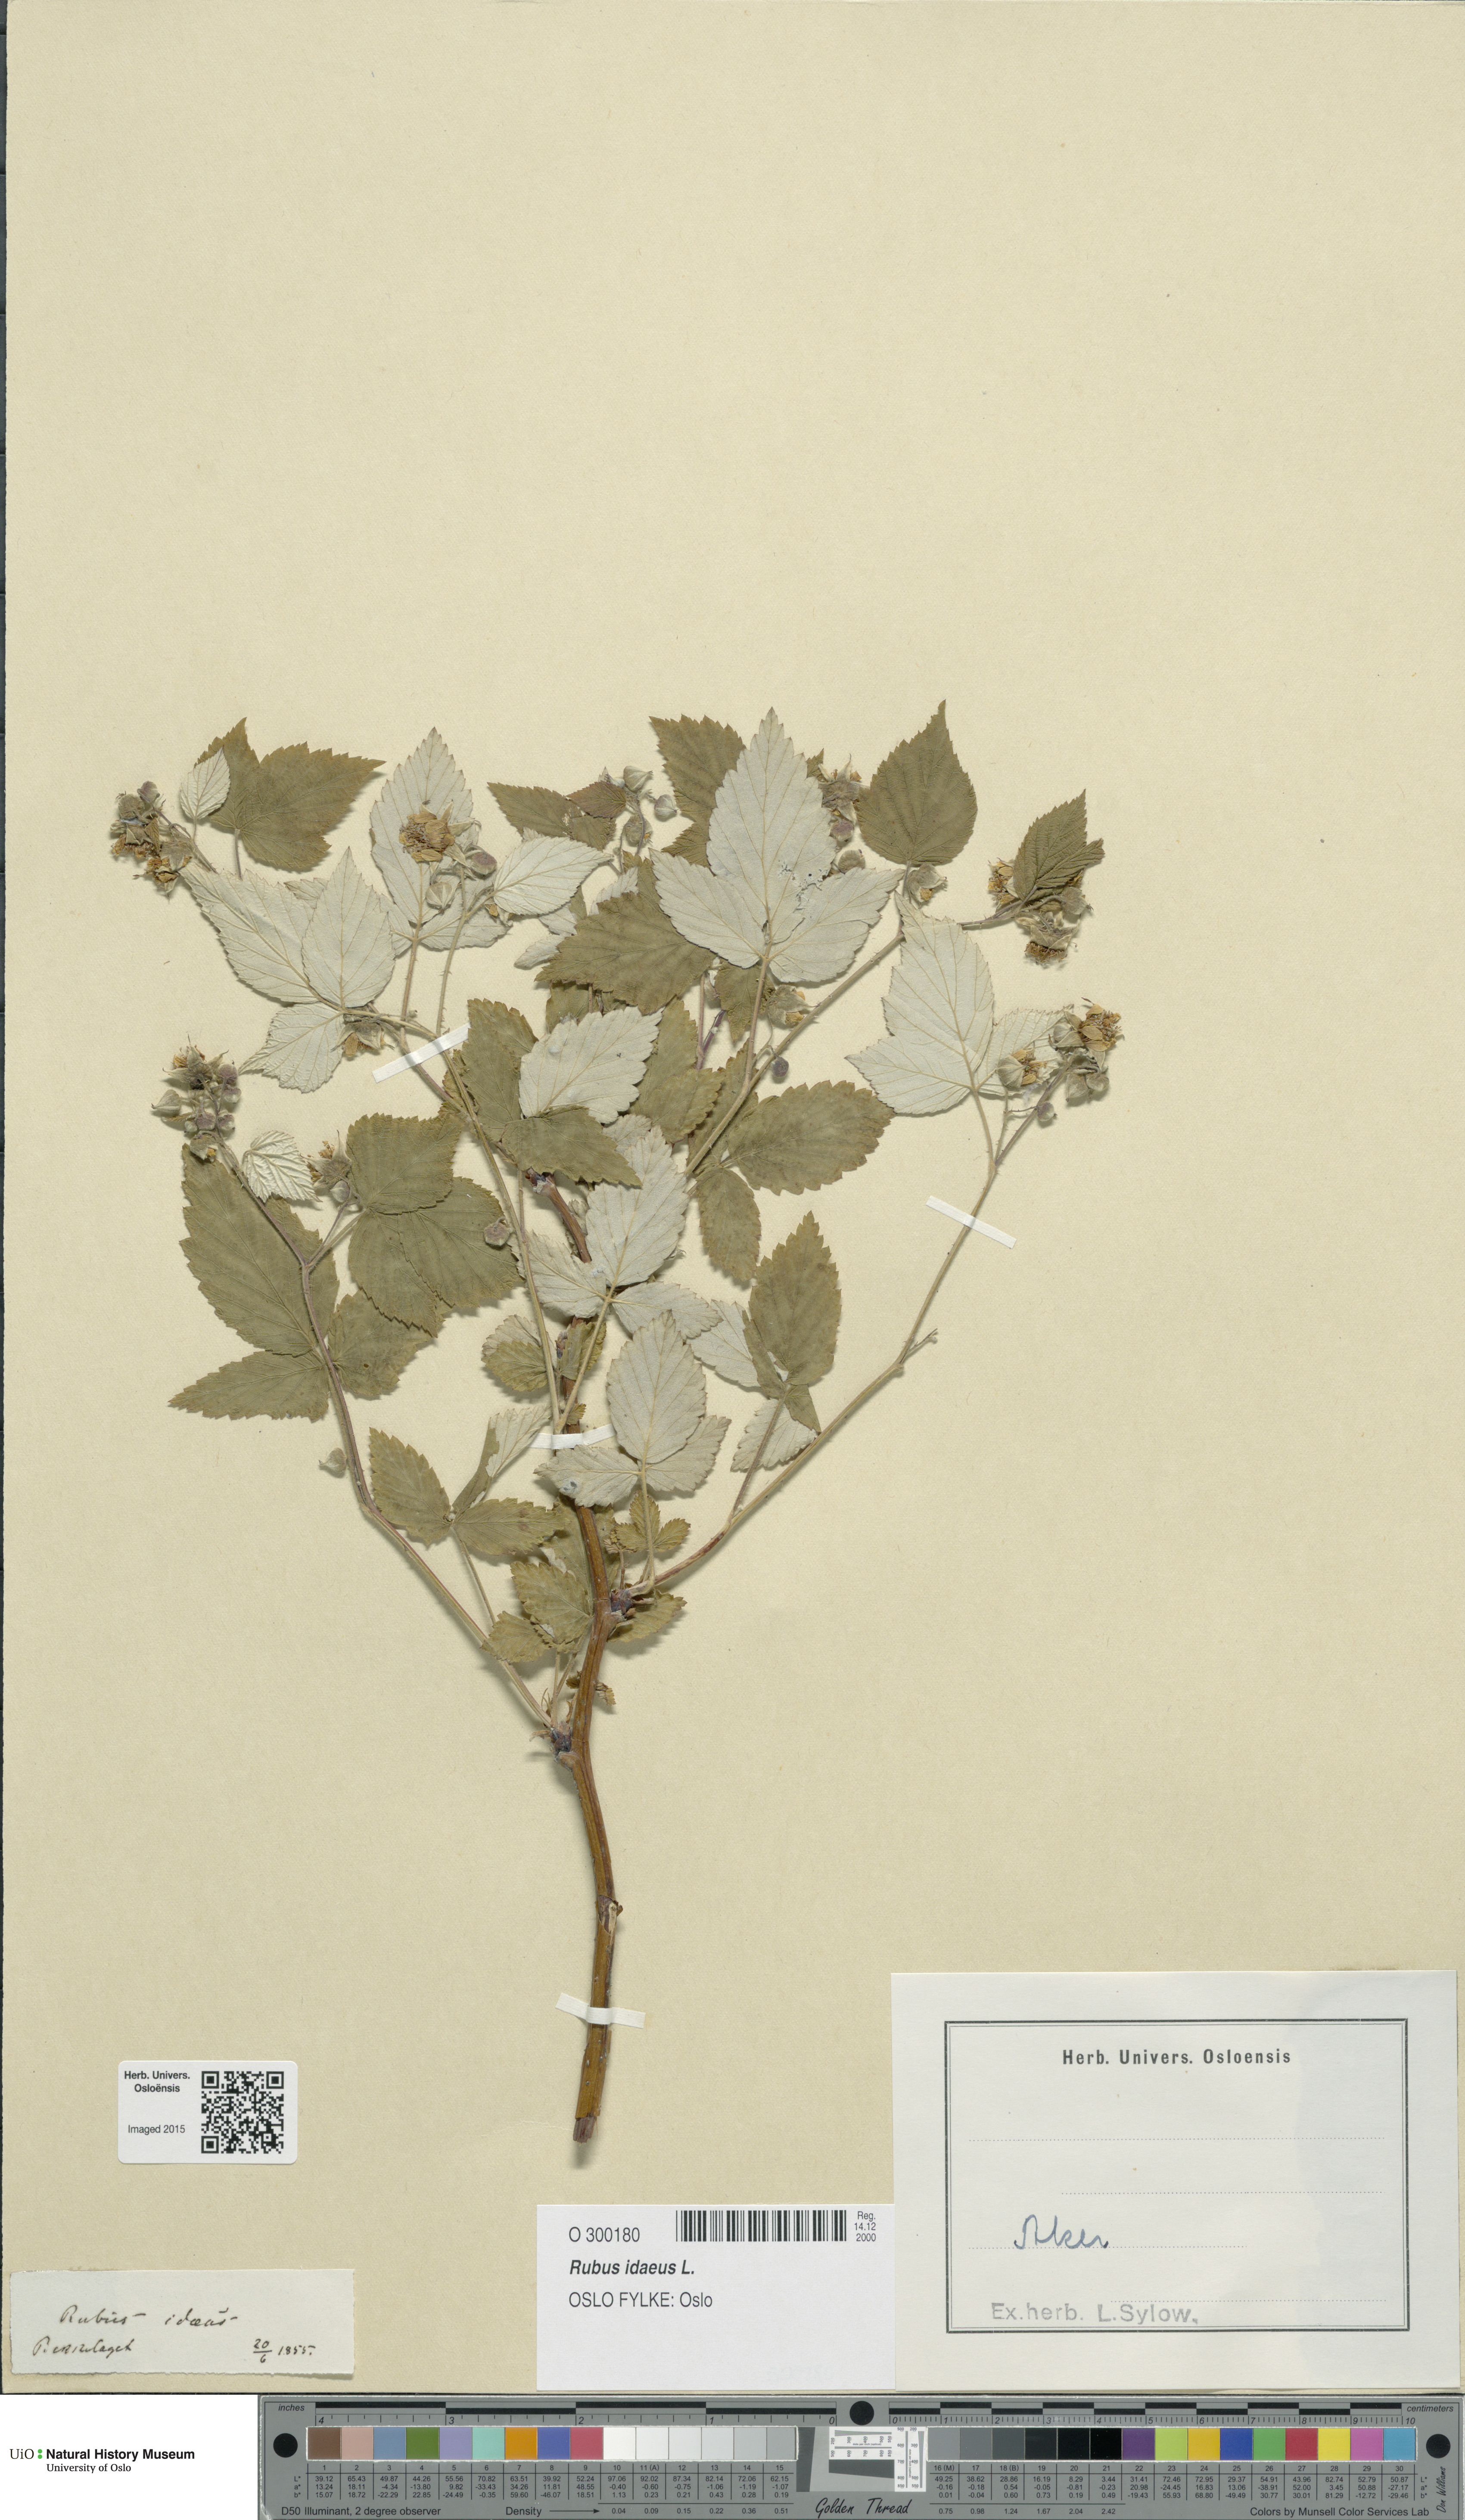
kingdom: Plantae
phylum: Tracheophyta
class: Magnoliopsida
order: Rosales
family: Rosaceae
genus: Rubus
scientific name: Rubus idaeus
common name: Raspberry
